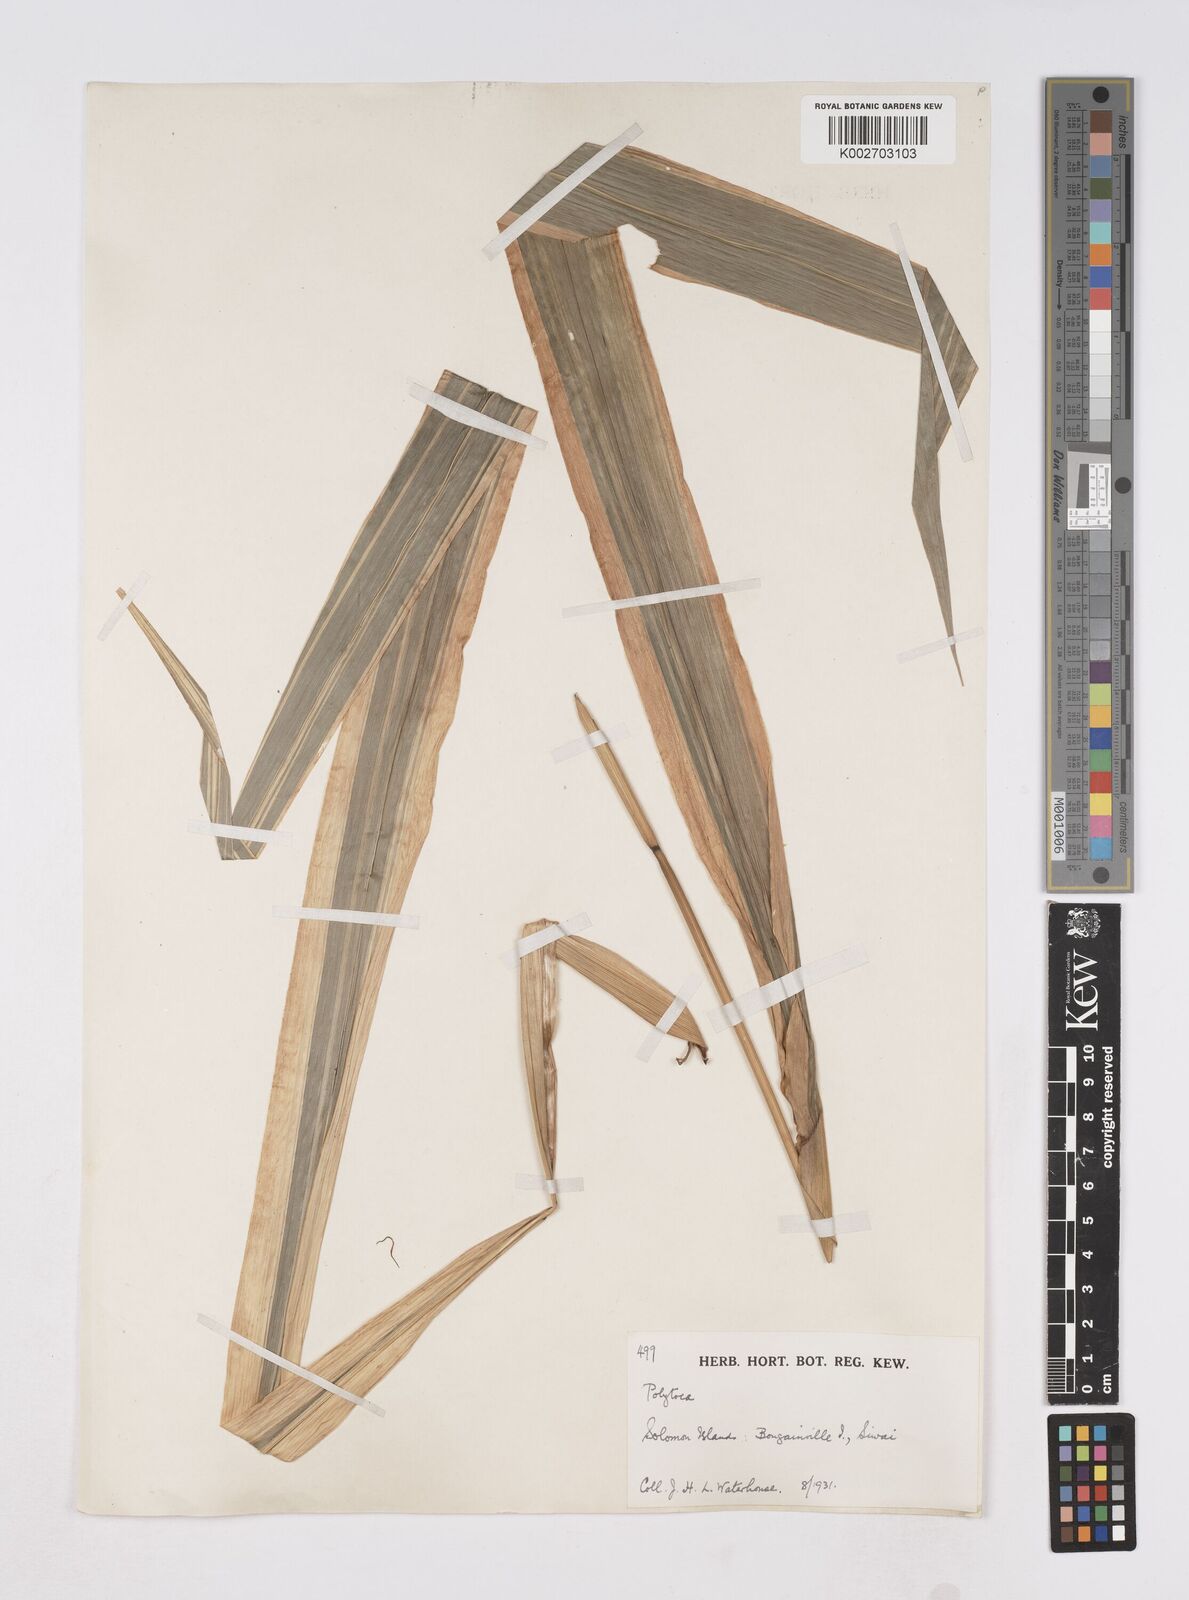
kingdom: Plantae
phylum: Tracheophyta
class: Liliopsida
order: Poales
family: Poaceae
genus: Polytoca
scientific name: Polytoca macrophylla
